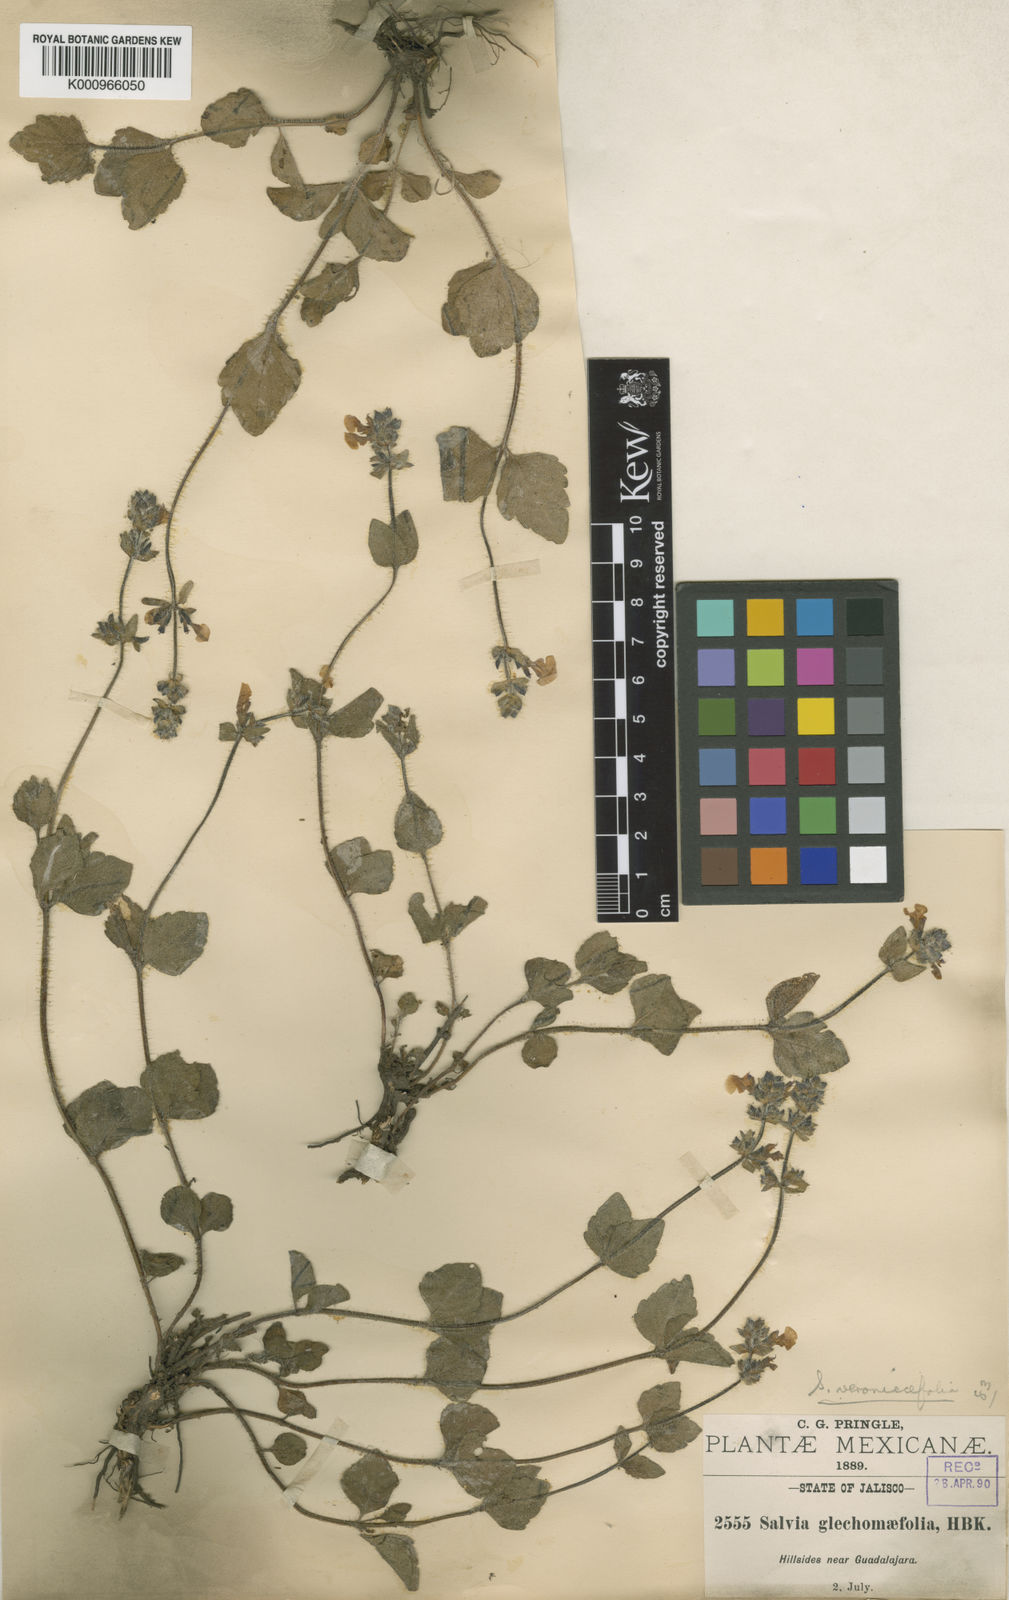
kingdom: Plantae
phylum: Tracheophyta
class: Magnoliopsida
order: Lamiales
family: Lamiaceae
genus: Salvia
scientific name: Salvia veronicifolia
